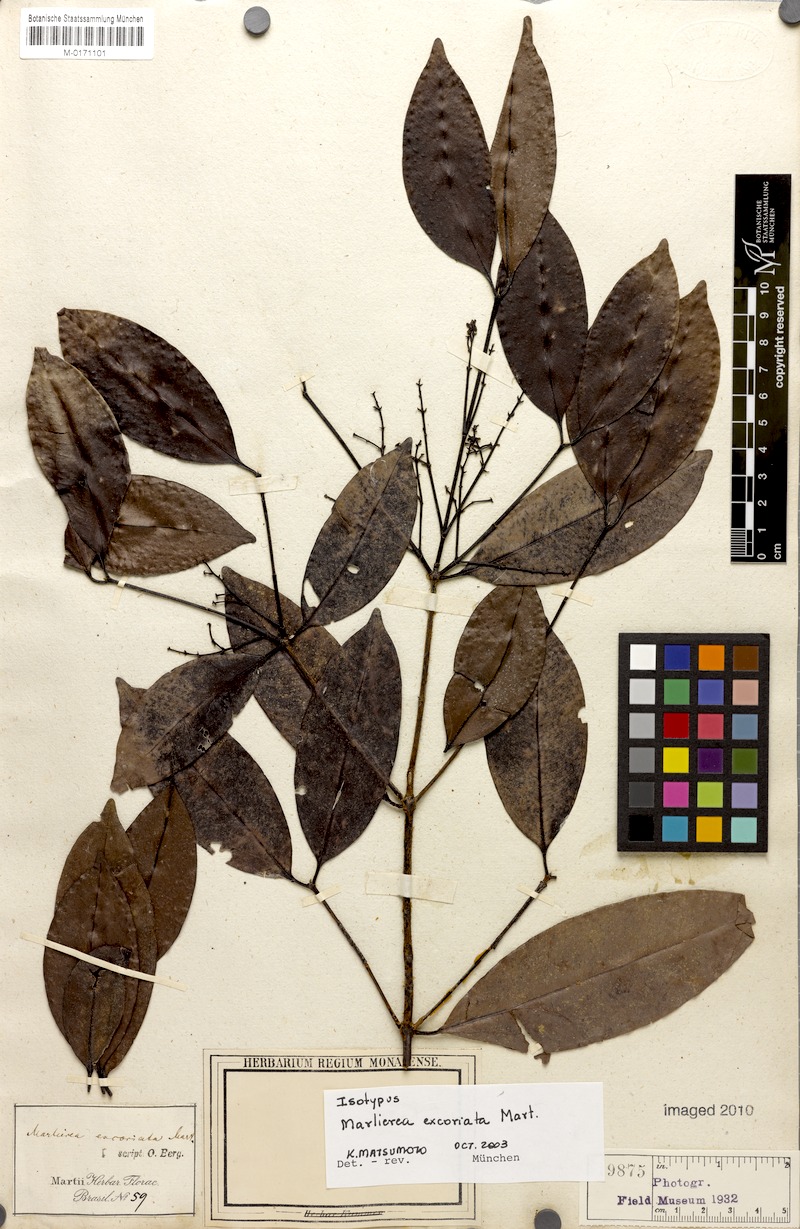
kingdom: Plantae
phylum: Tracheophyta
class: Magnoliopsida
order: Myrtales
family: Myrtaceae
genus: Myrcia
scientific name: Myrcia excoriata
